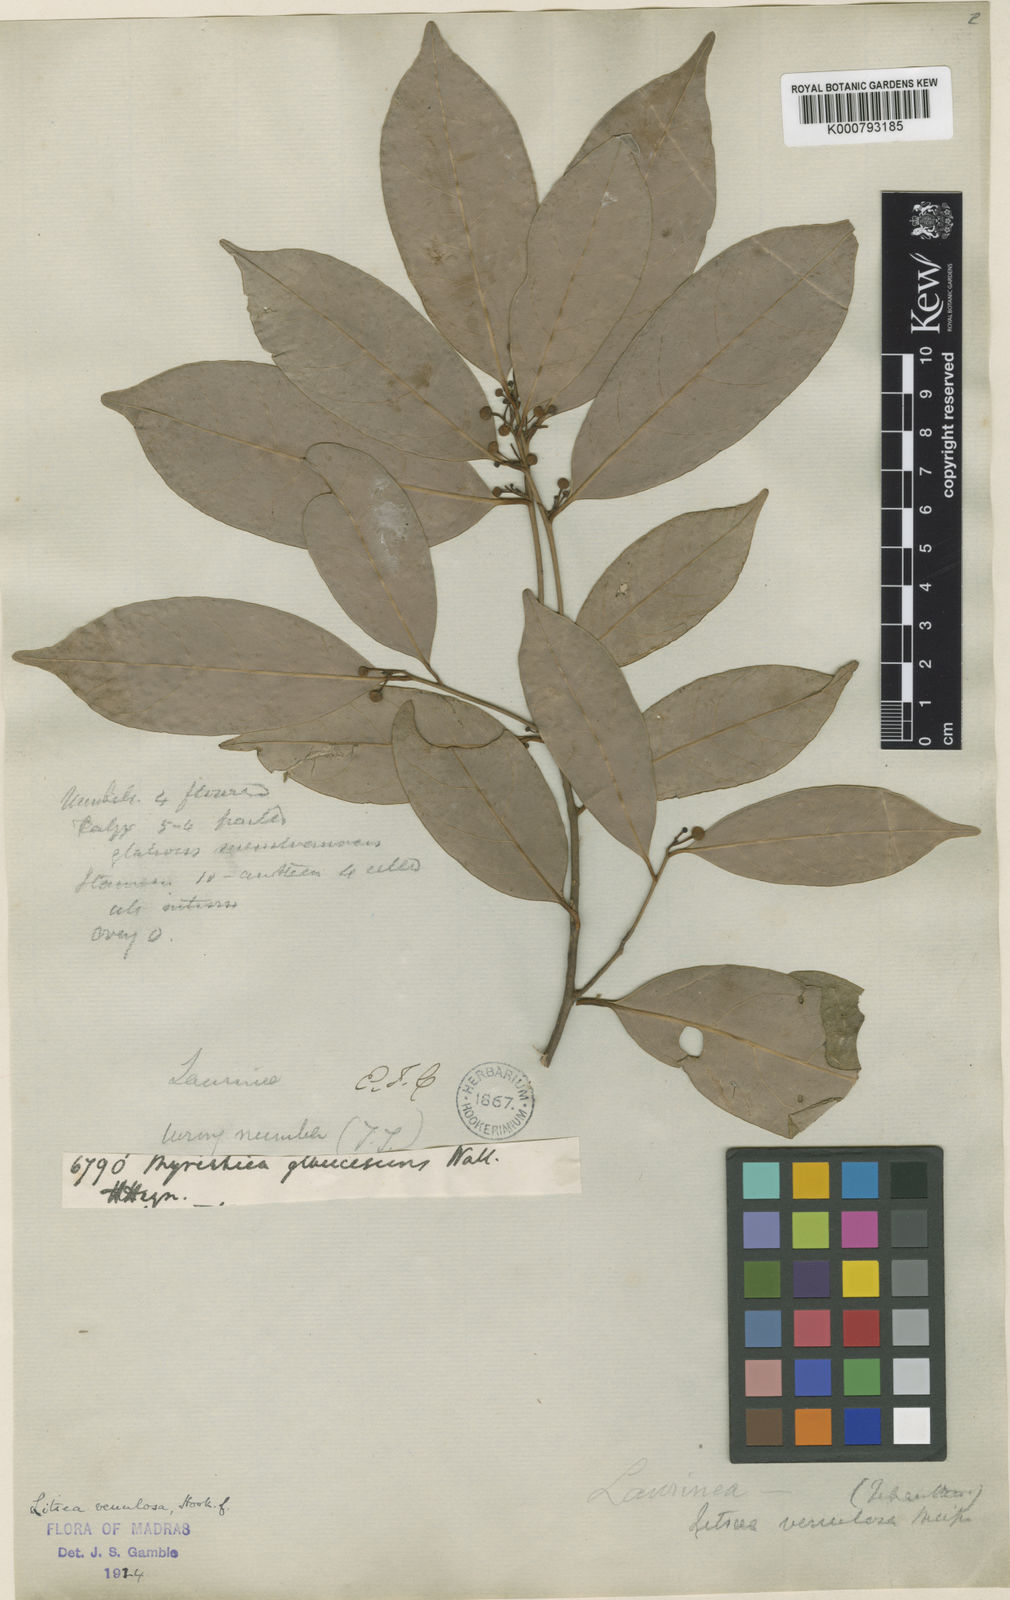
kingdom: Plantae
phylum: Tracheophyta
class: Magnoliopsida
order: Laurales
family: Lauraceae
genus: Litsea
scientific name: Litsea venulosa
